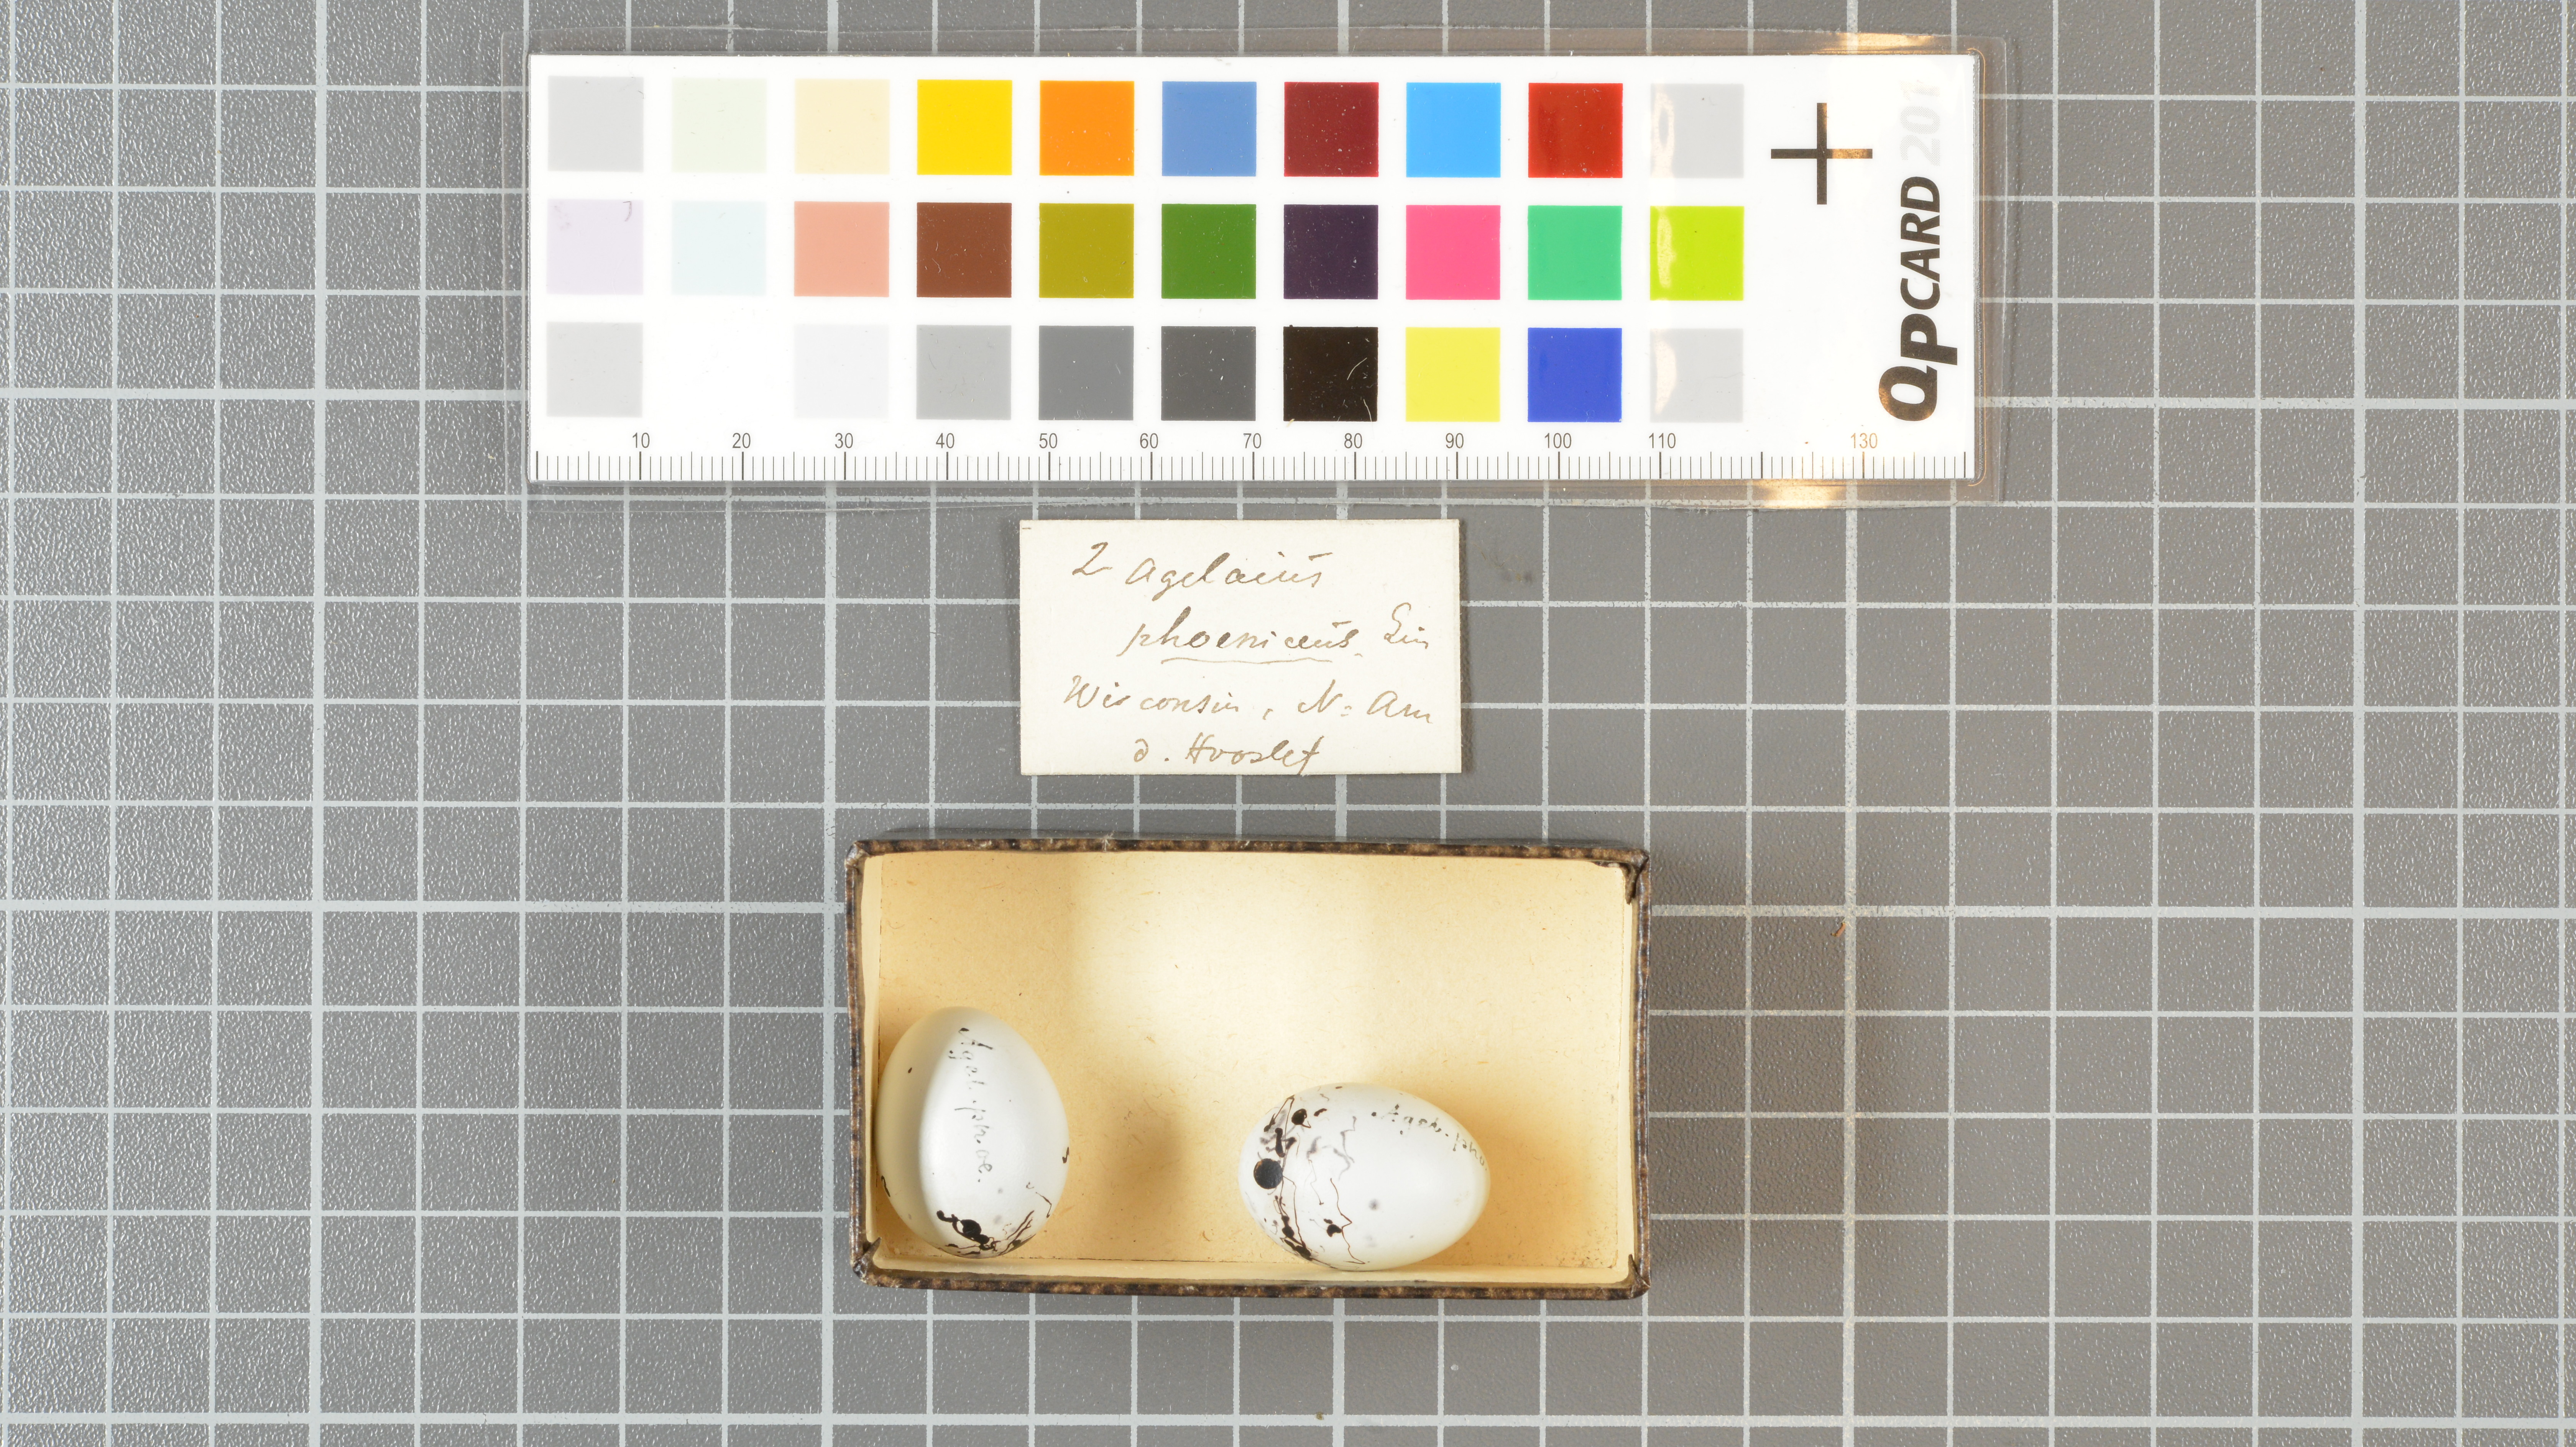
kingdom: Animalia
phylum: Chordata
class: Aves
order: Passeriformes
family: Icteridae
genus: Agelaius
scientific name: Agelaius phoeniceus
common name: Red-winged blackbird
